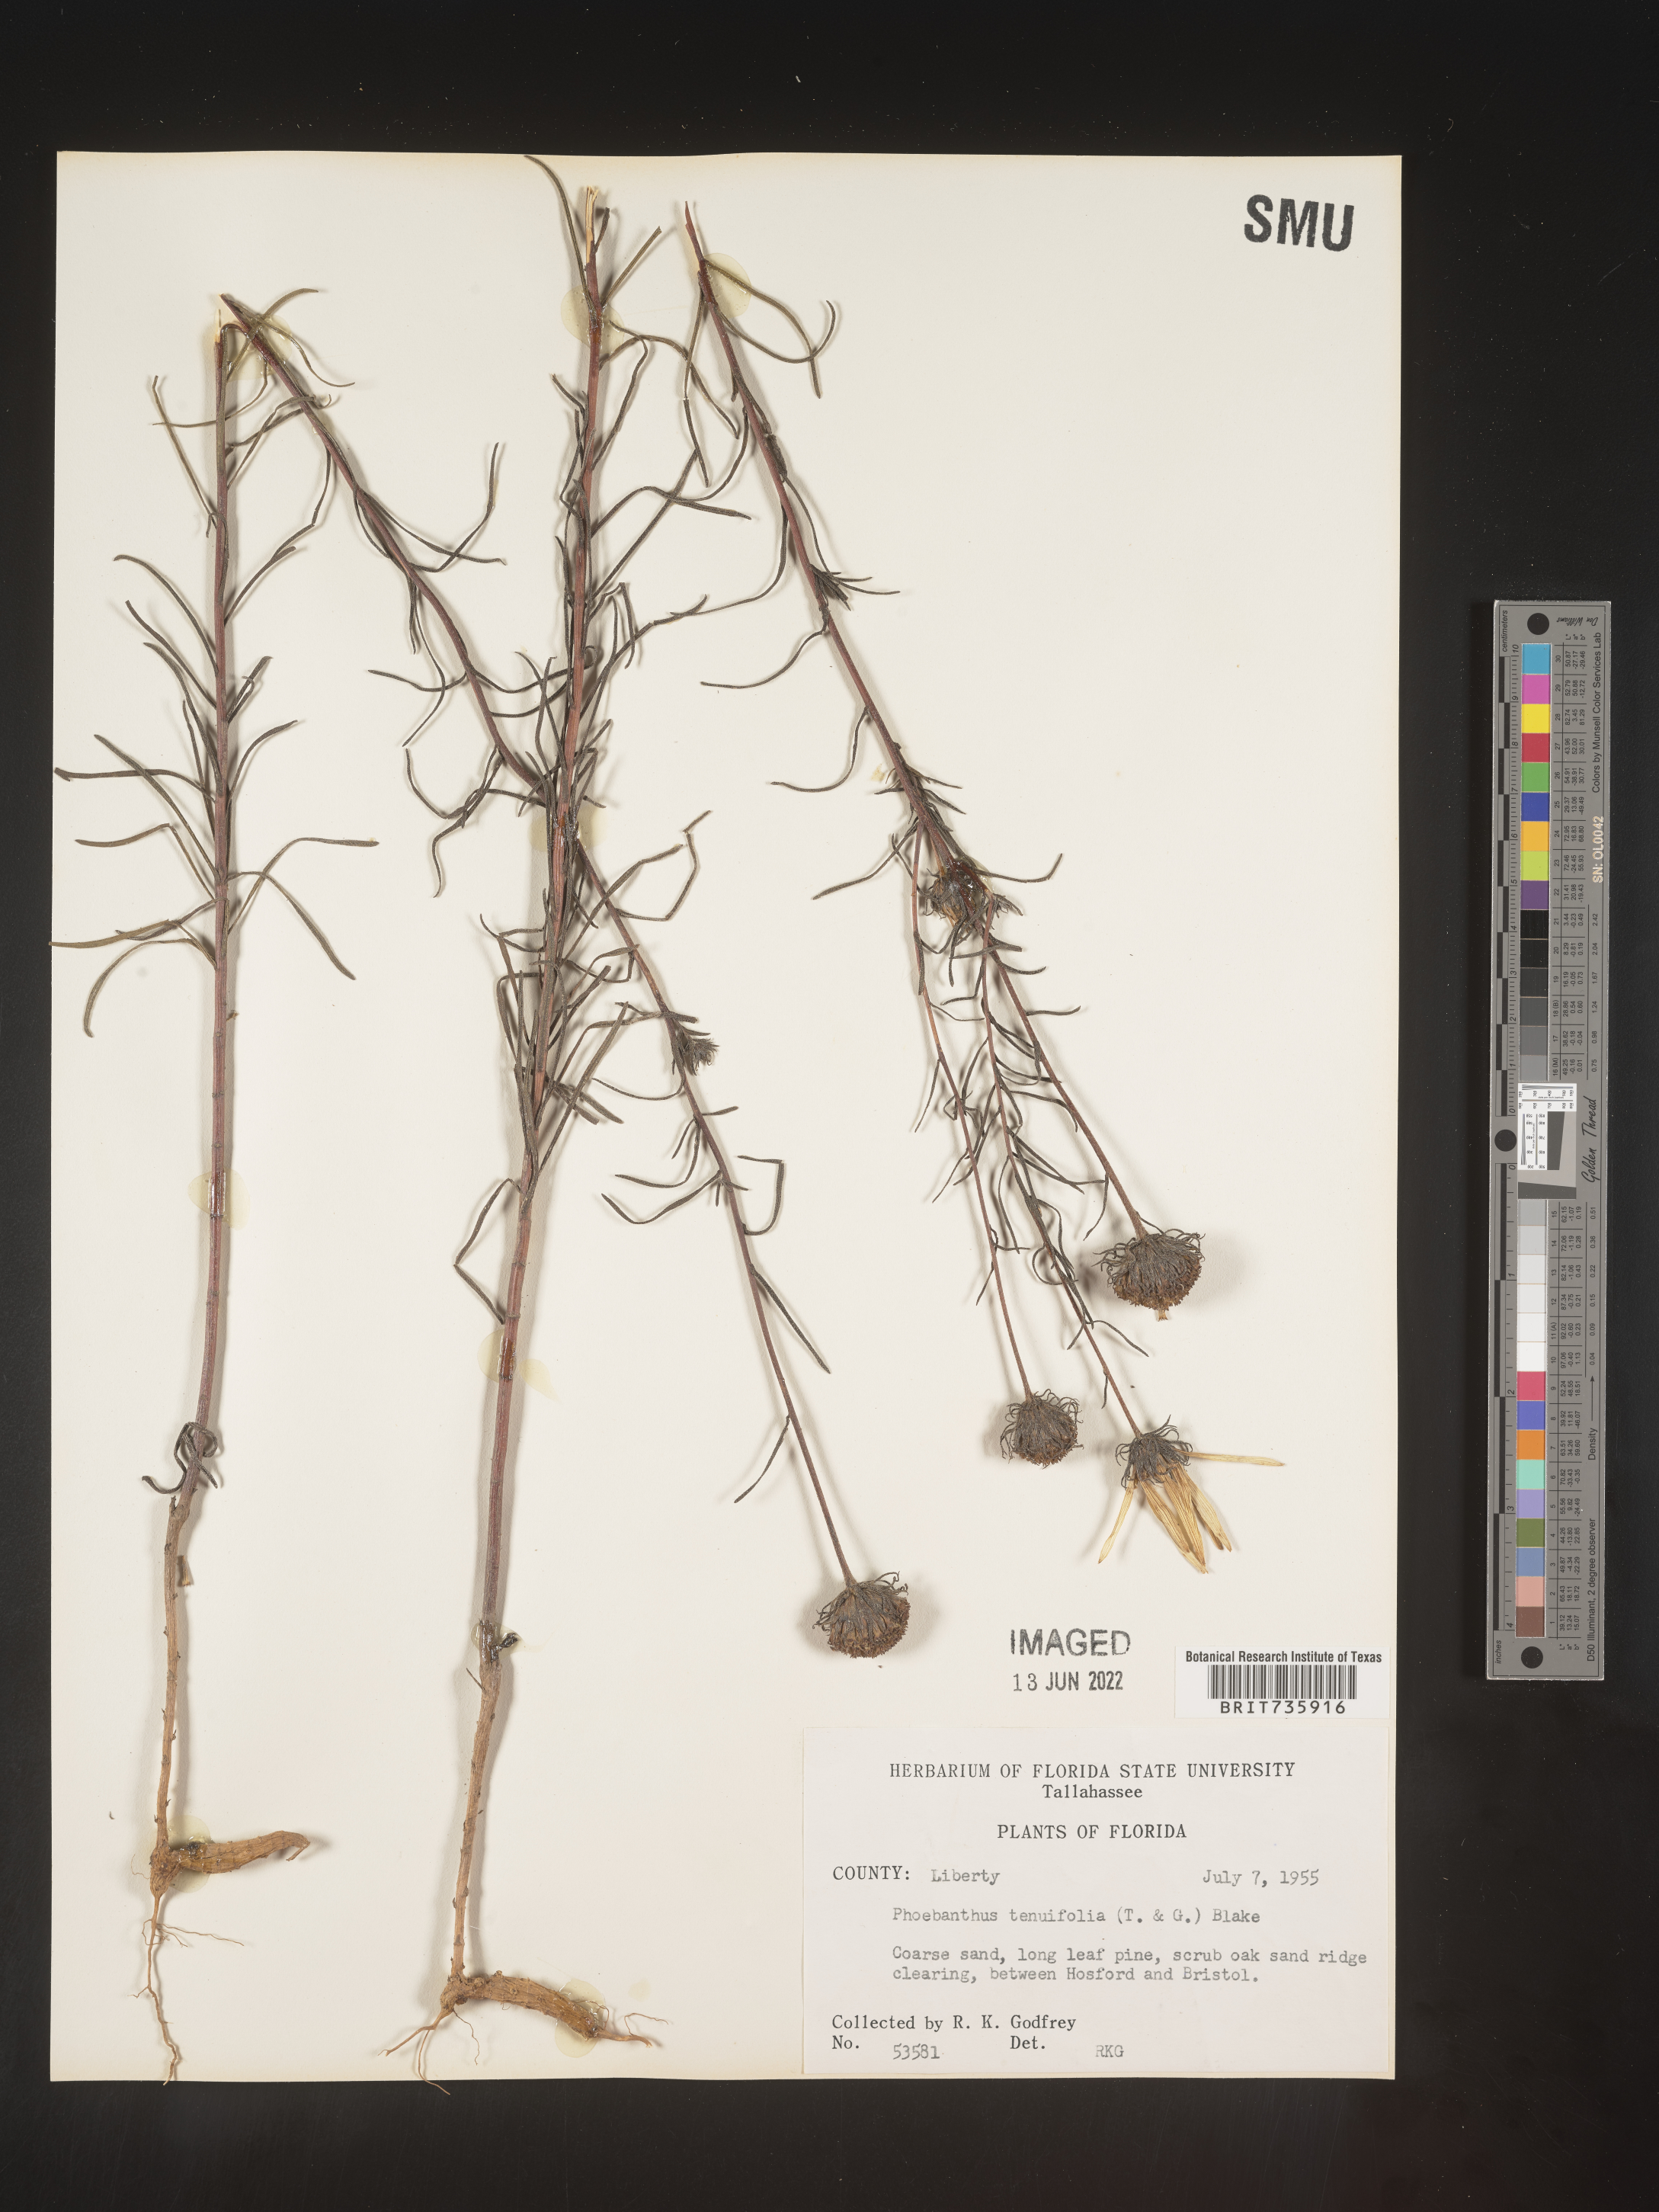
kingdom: Plantae
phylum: Tracheophyta
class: Magnoliopsida
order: Asterales
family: Asteraceae
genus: Phoebanthus
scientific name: Phoebanthus tenuifolia
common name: Pineland false sunflower
